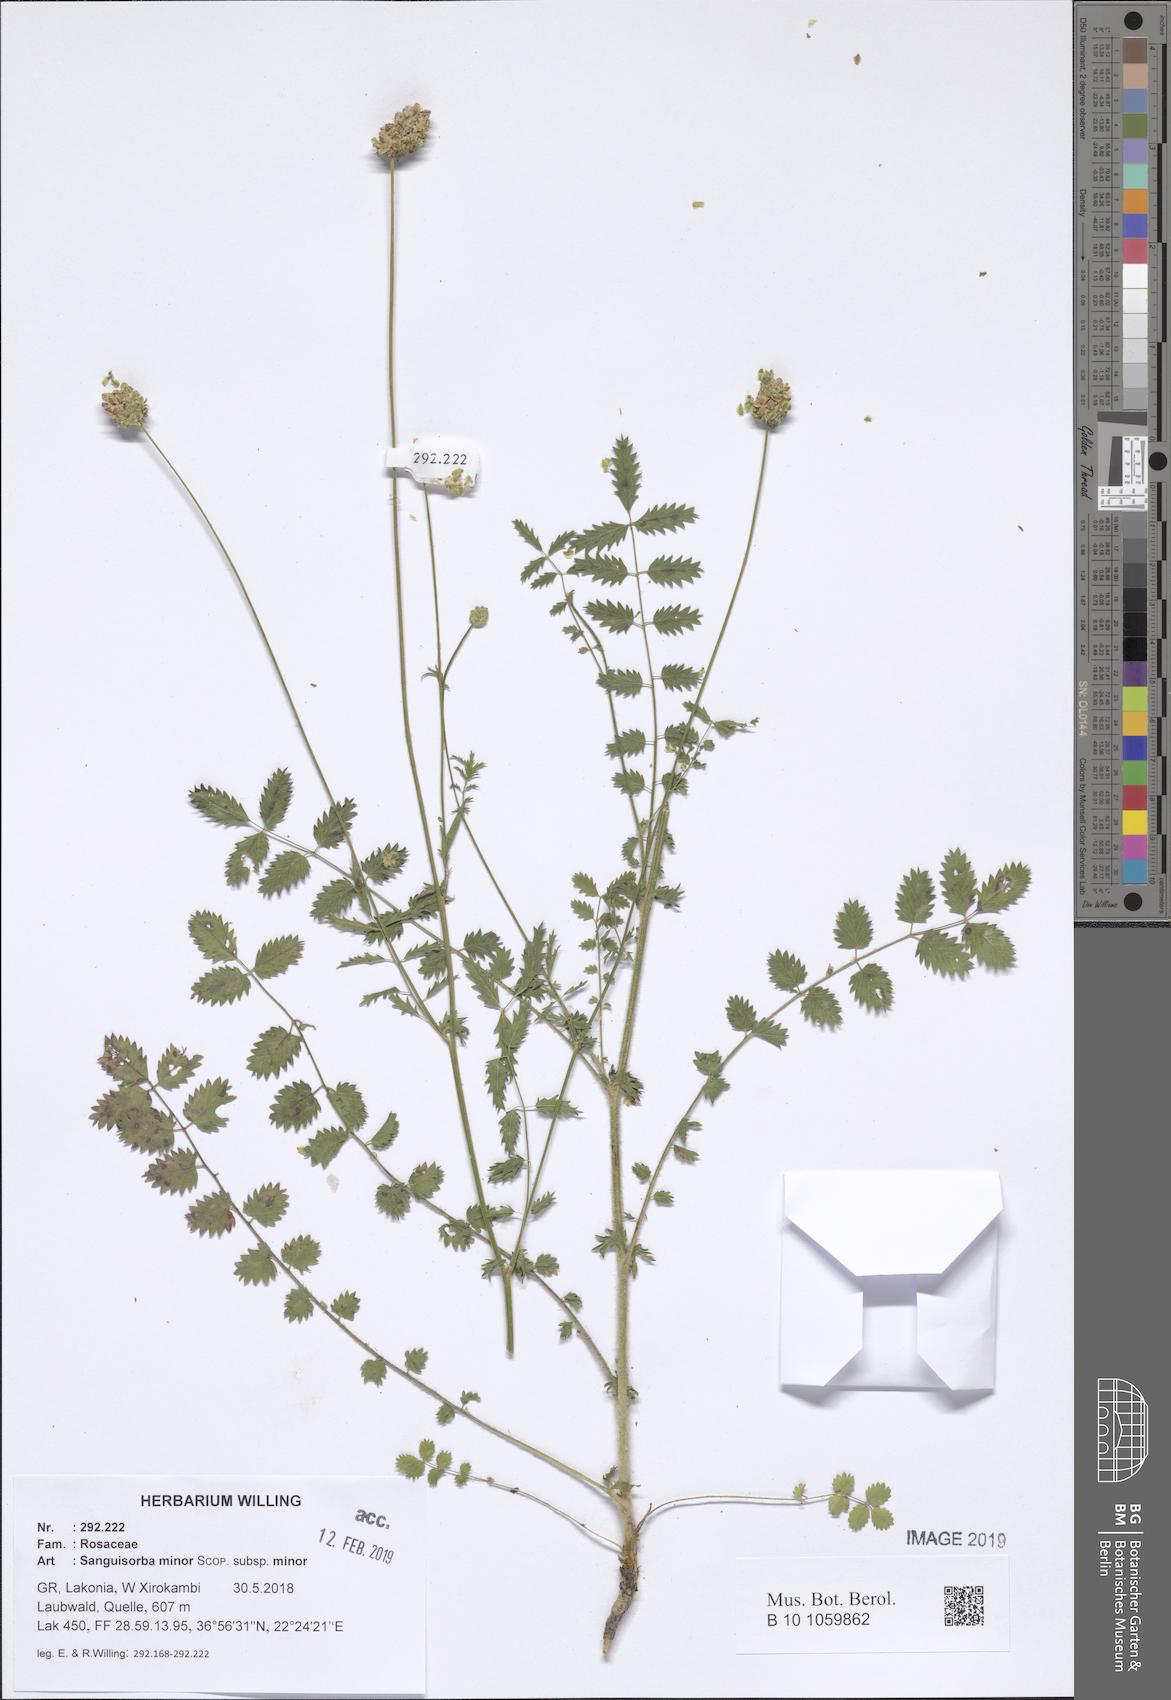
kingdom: Plantae
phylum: Tracheophyta
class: Magnoliopsida
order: Rosales
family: Rosaceae
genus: Poterium
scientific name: Poterium sanguisorba
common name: Salad burnet
